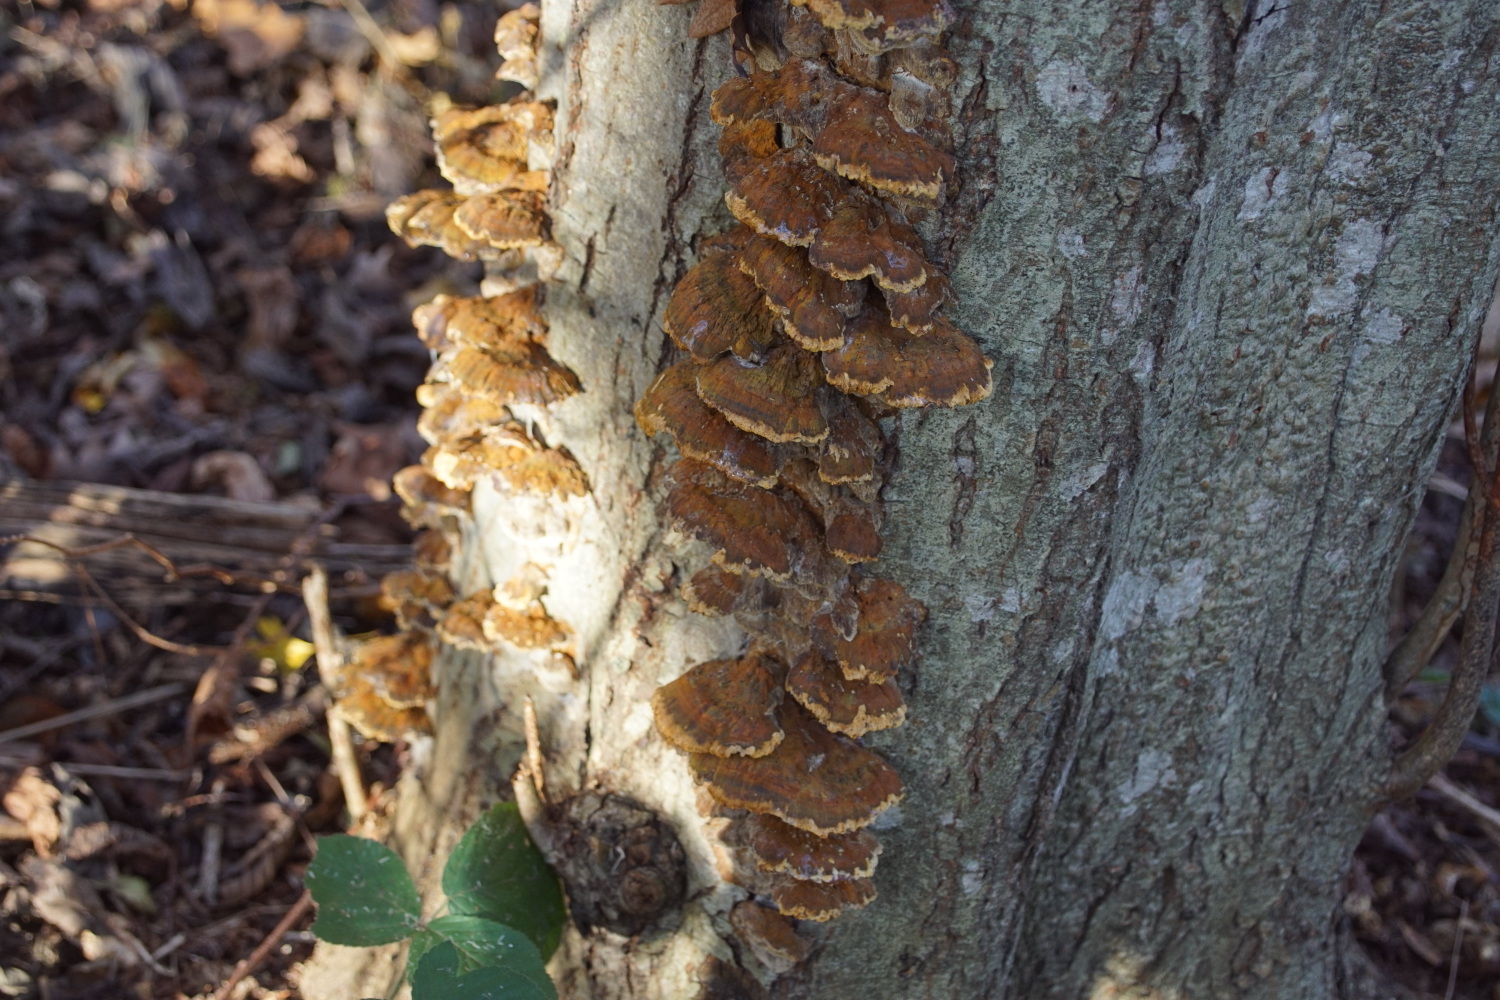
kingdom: Fungi
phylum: Basidiomycota
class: Agaricomycetes
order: Hymenochaetales
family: Hymenochaetaceae
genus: Xanthoporia
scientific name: Xanthoporia radiata
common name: elle-spejlporesvamp
